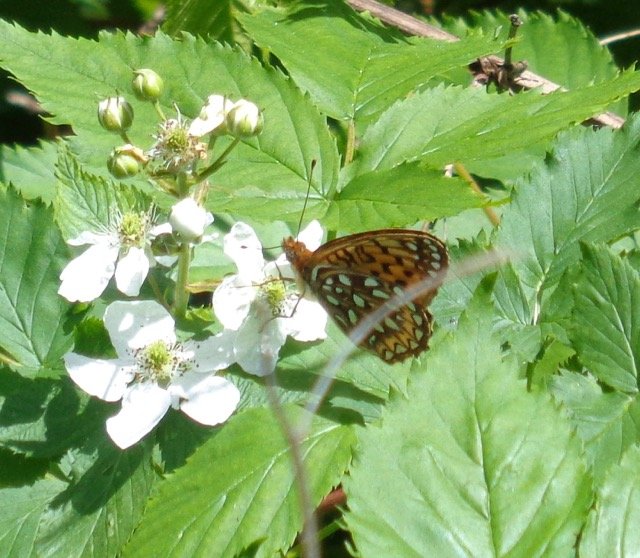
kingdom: Animalia
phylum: Arthropoda
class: Insecta
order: Lepidoptera
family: Nymphalidae
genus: Speyeria
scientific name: Speyeria atlantis
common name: Atlantis Fritillary
